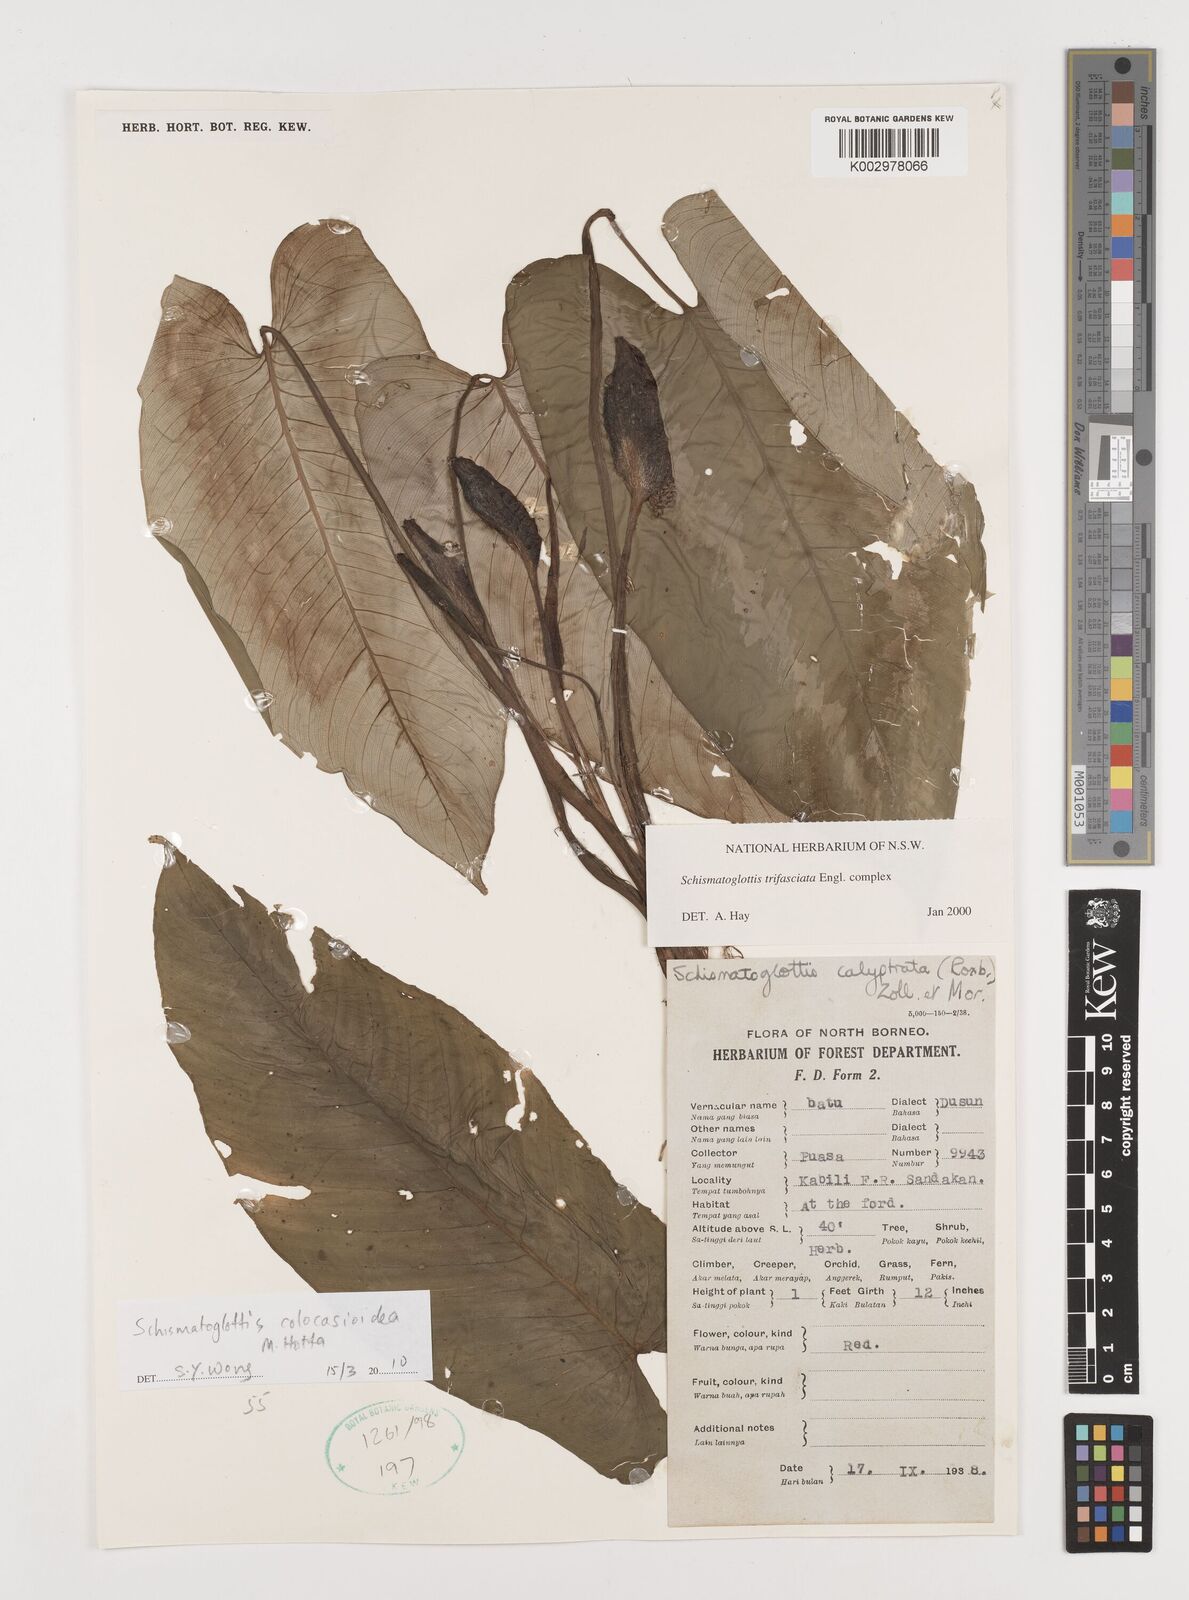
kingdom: Plantae
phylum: Tracheophyta
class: Liliopsida
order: Alismatales
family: Araceae
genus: Schismatoglottis
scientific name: Schismatoglottis colocasioidea
